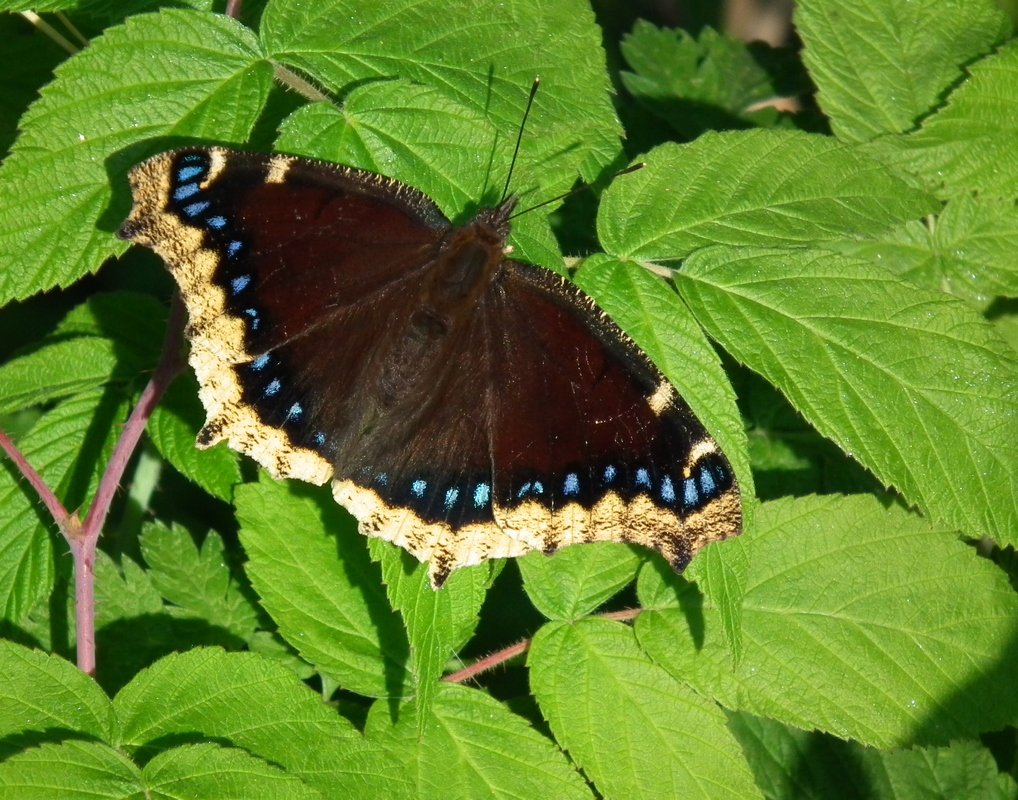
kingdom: Animalia
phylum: Arthropoda
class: Insecta
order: Lepidoptera
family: Nymphalidae
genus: Nymphalis
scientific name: Nymphalis antiopa
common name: Mourning Cloak
